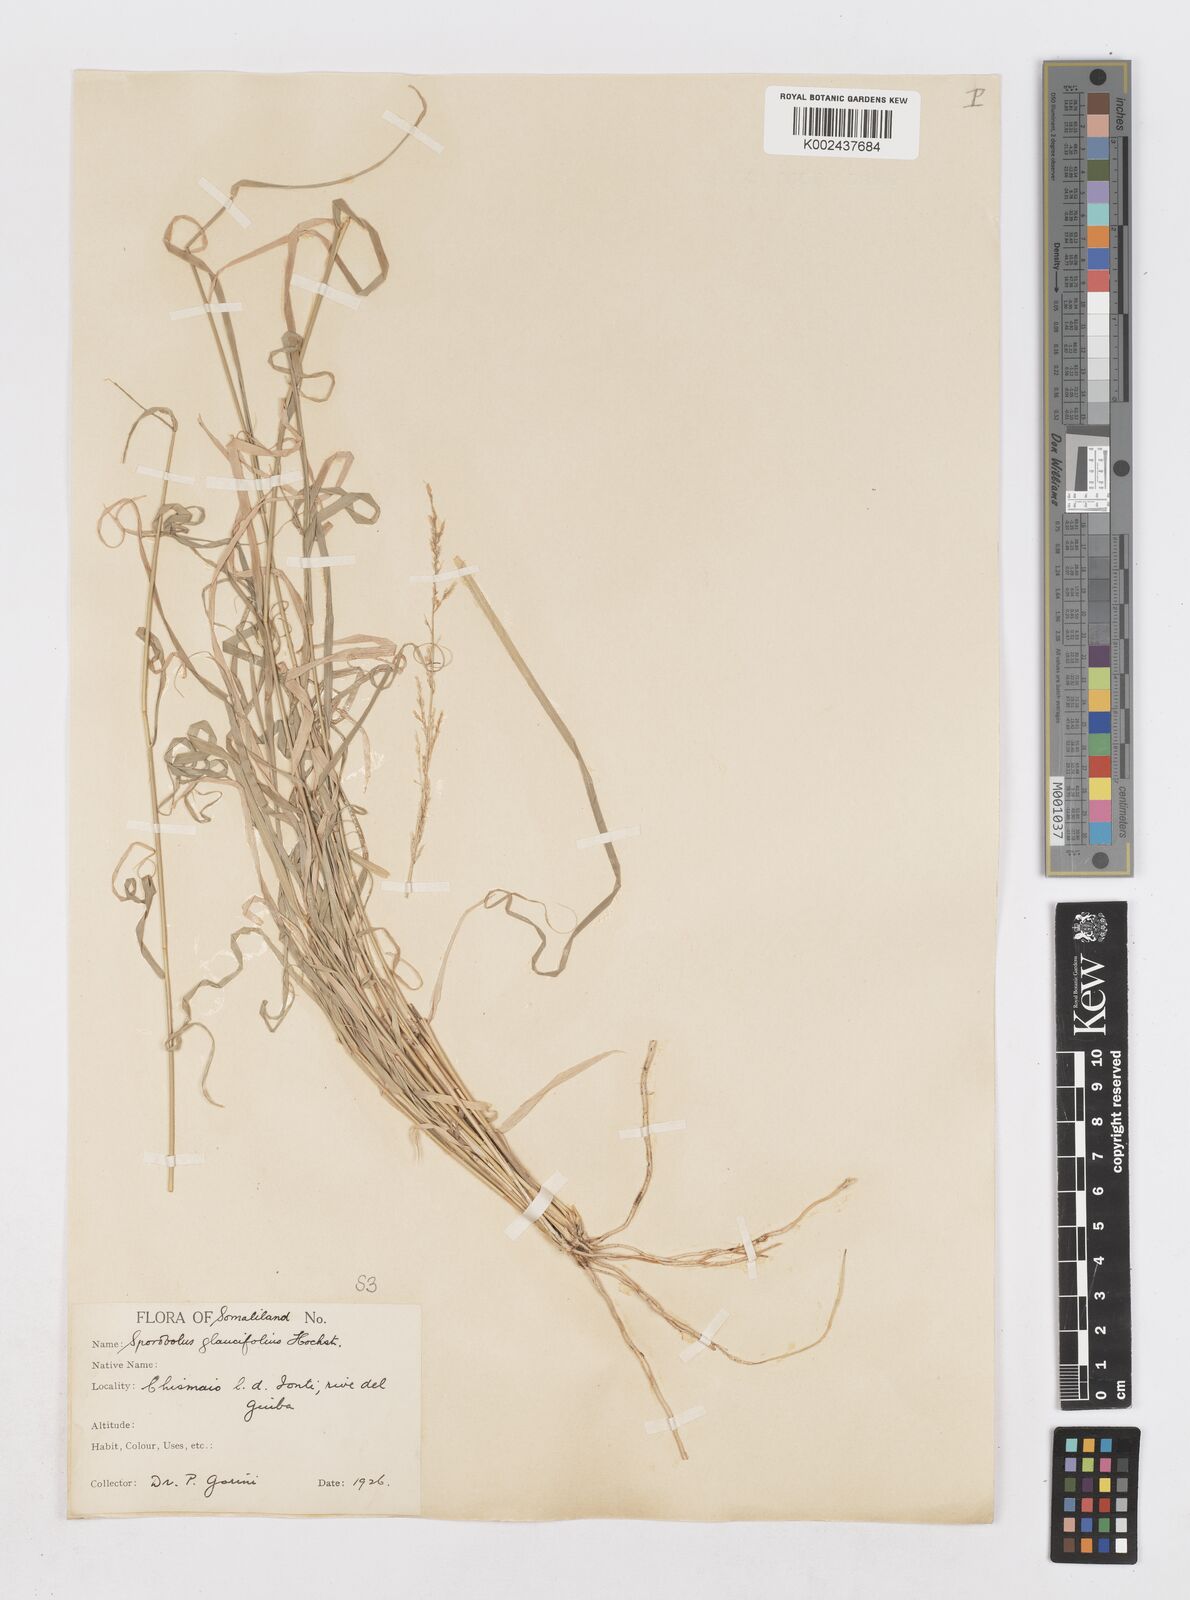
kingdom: Plantae
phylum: Tracheophyta
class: Liliopsida
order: Poales
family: Poaceae
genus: Sporobolus
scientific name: Sporobolus helvolus
